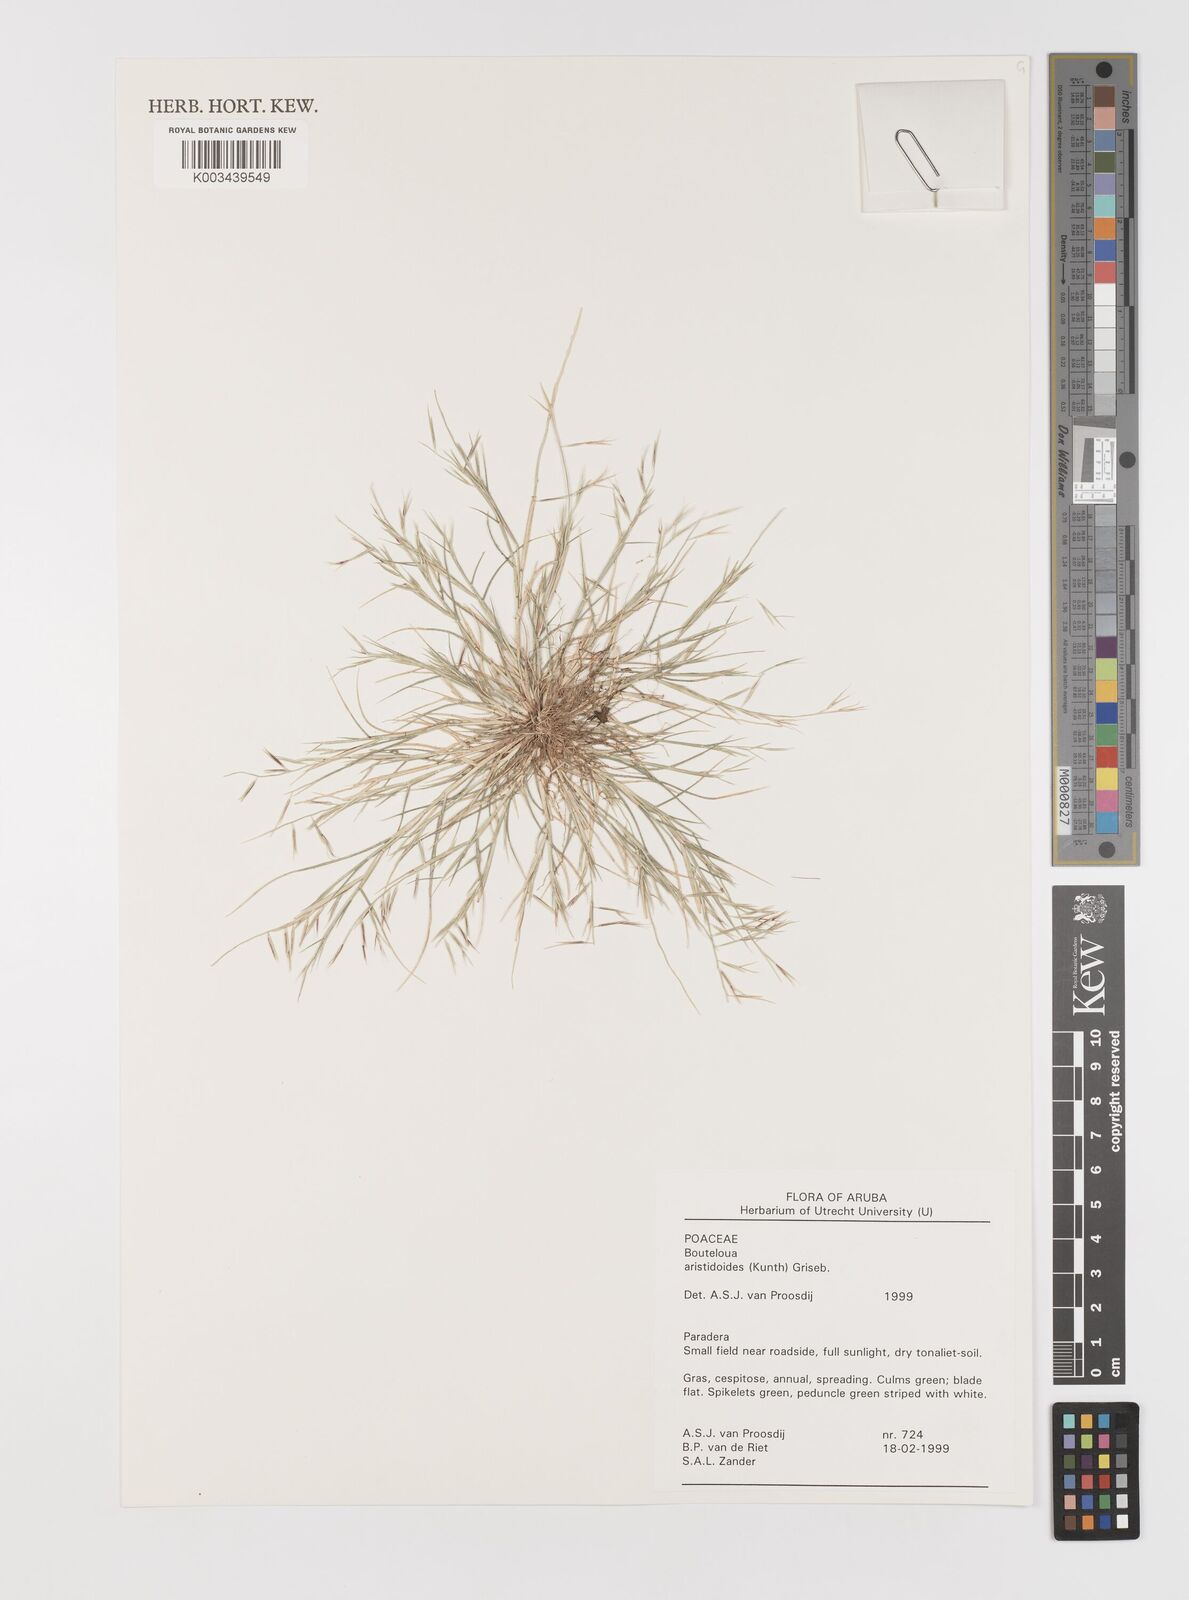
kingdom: Plantae
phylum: Tracheophyta
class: Liliopsida
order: Poales
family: Poaceae
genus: Bouteloua
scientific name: Bouteloua aristidoides
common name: Needle grama
